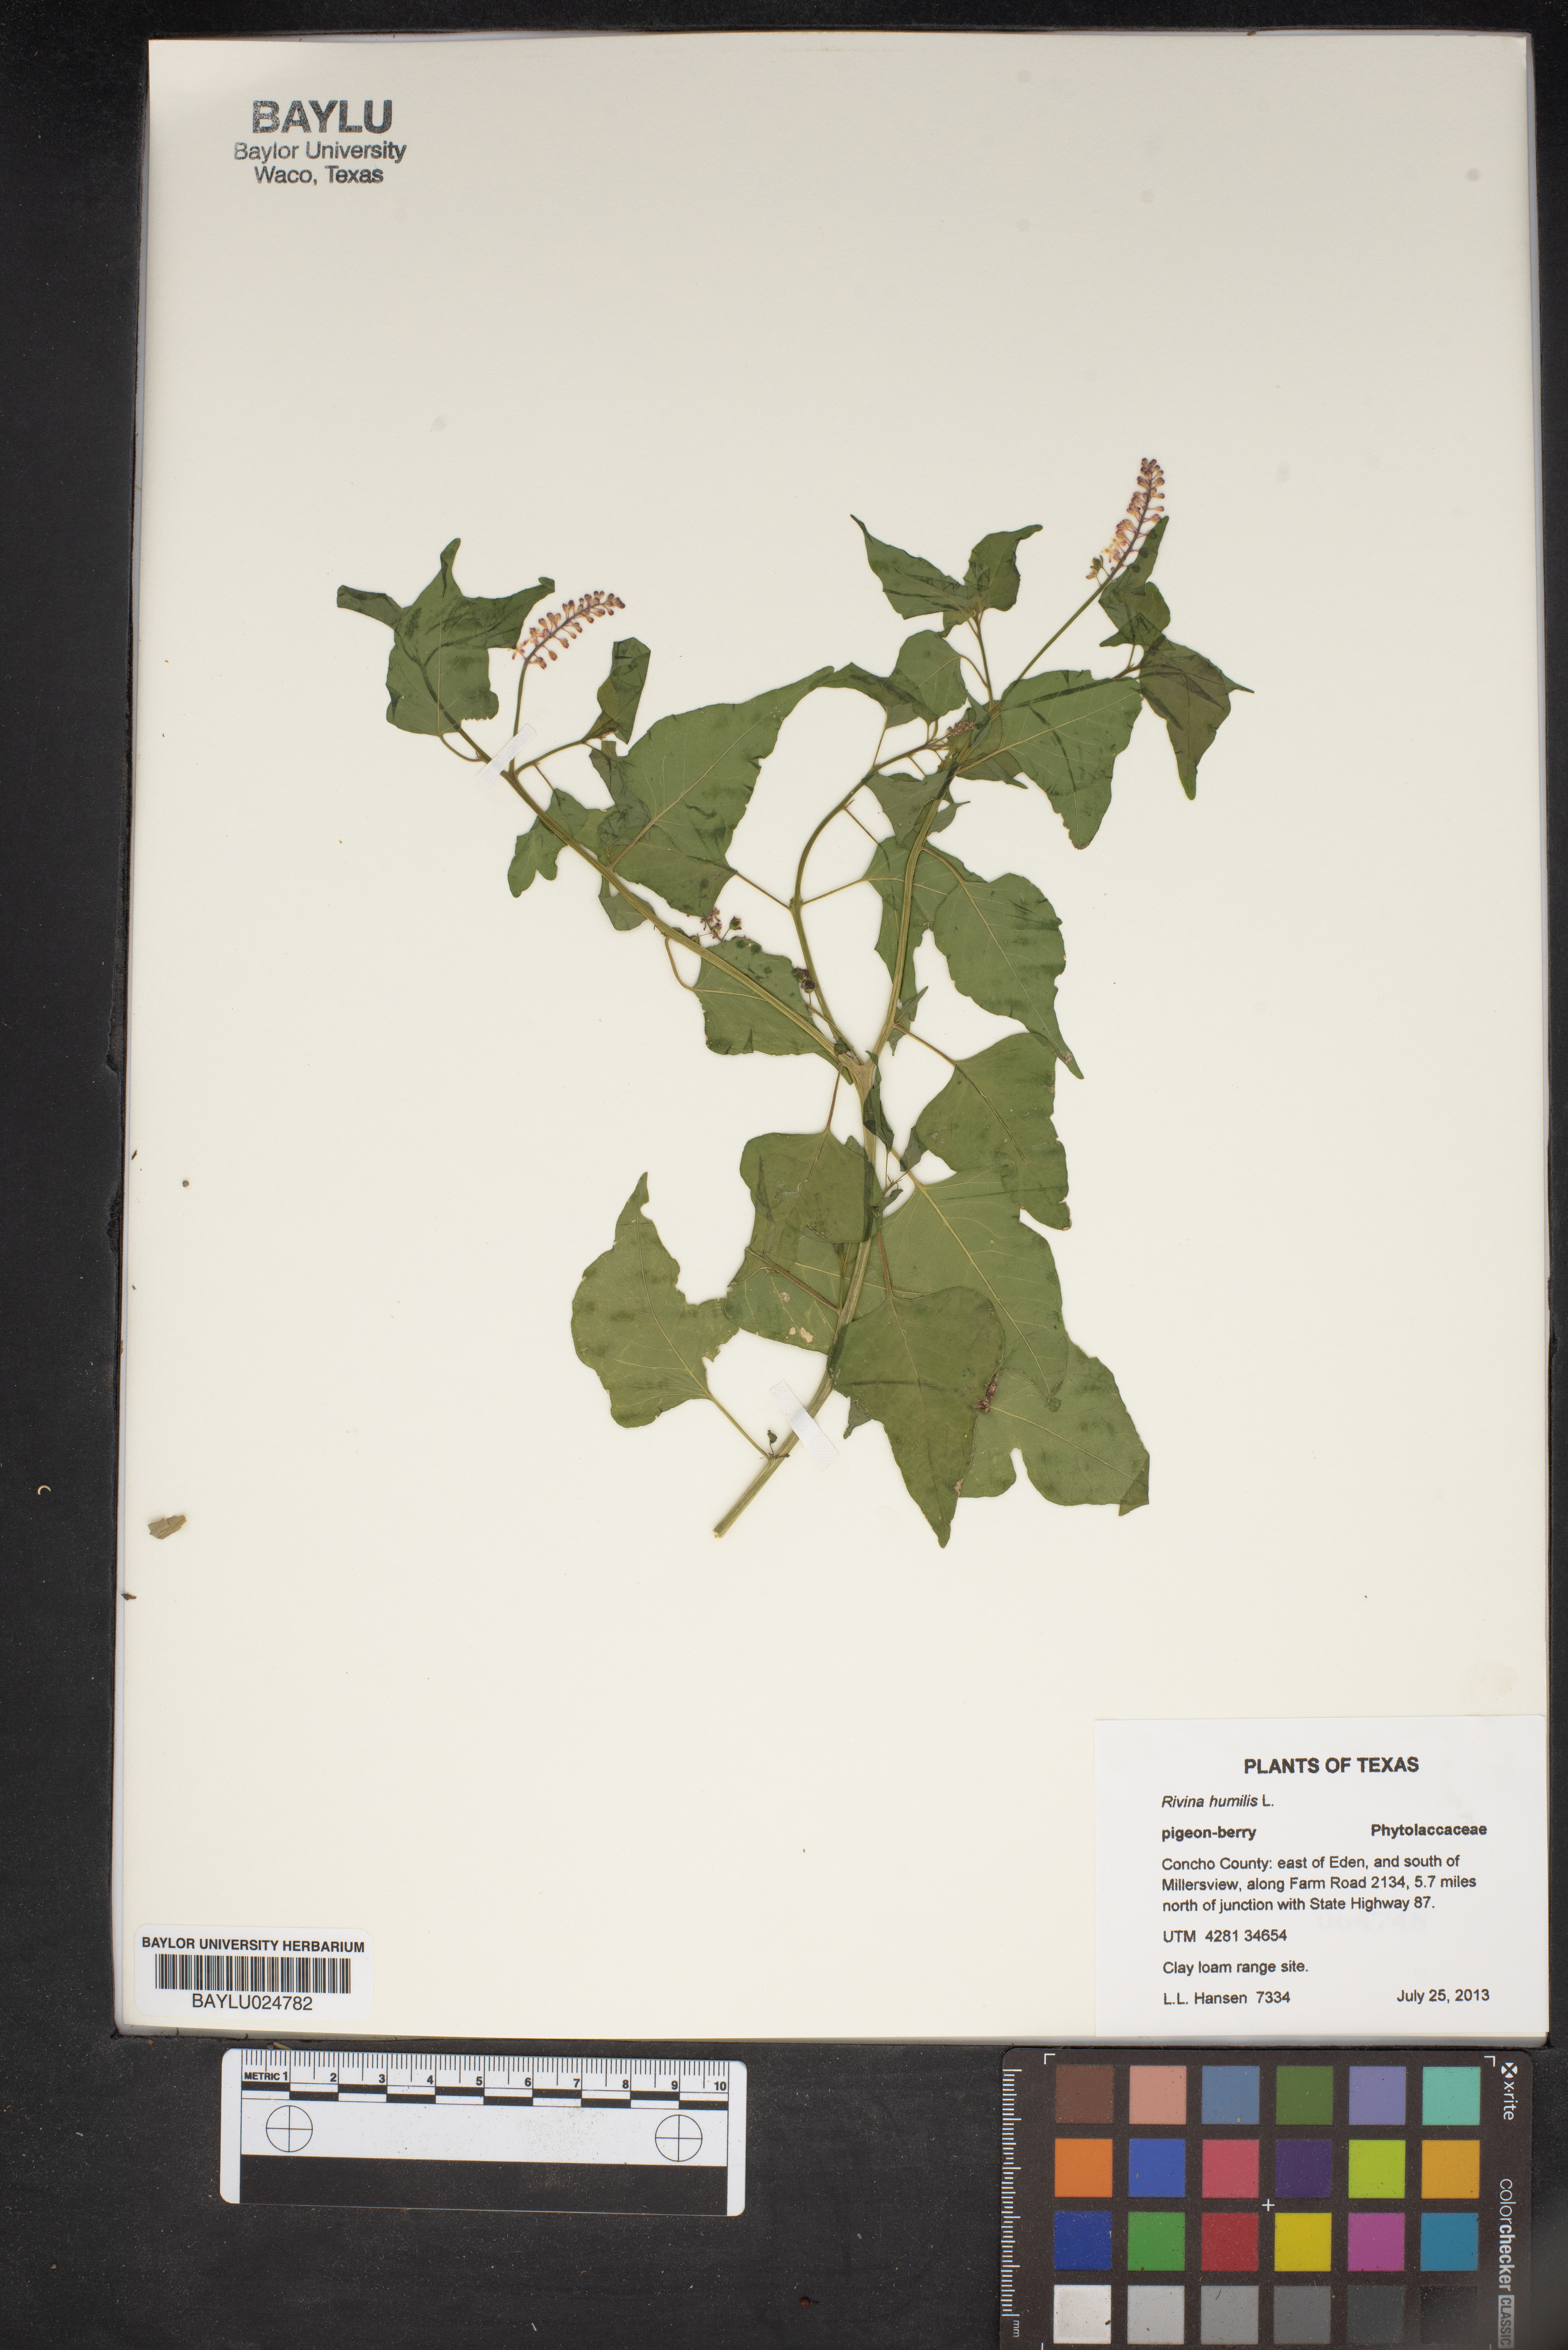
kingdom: Plantae
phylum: Tracheophyta
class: Magnoliopsida
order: Caryophyllales
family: Phytolaccaceae
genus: Rivina
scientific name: Rivina humilis
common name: Rougeplant
